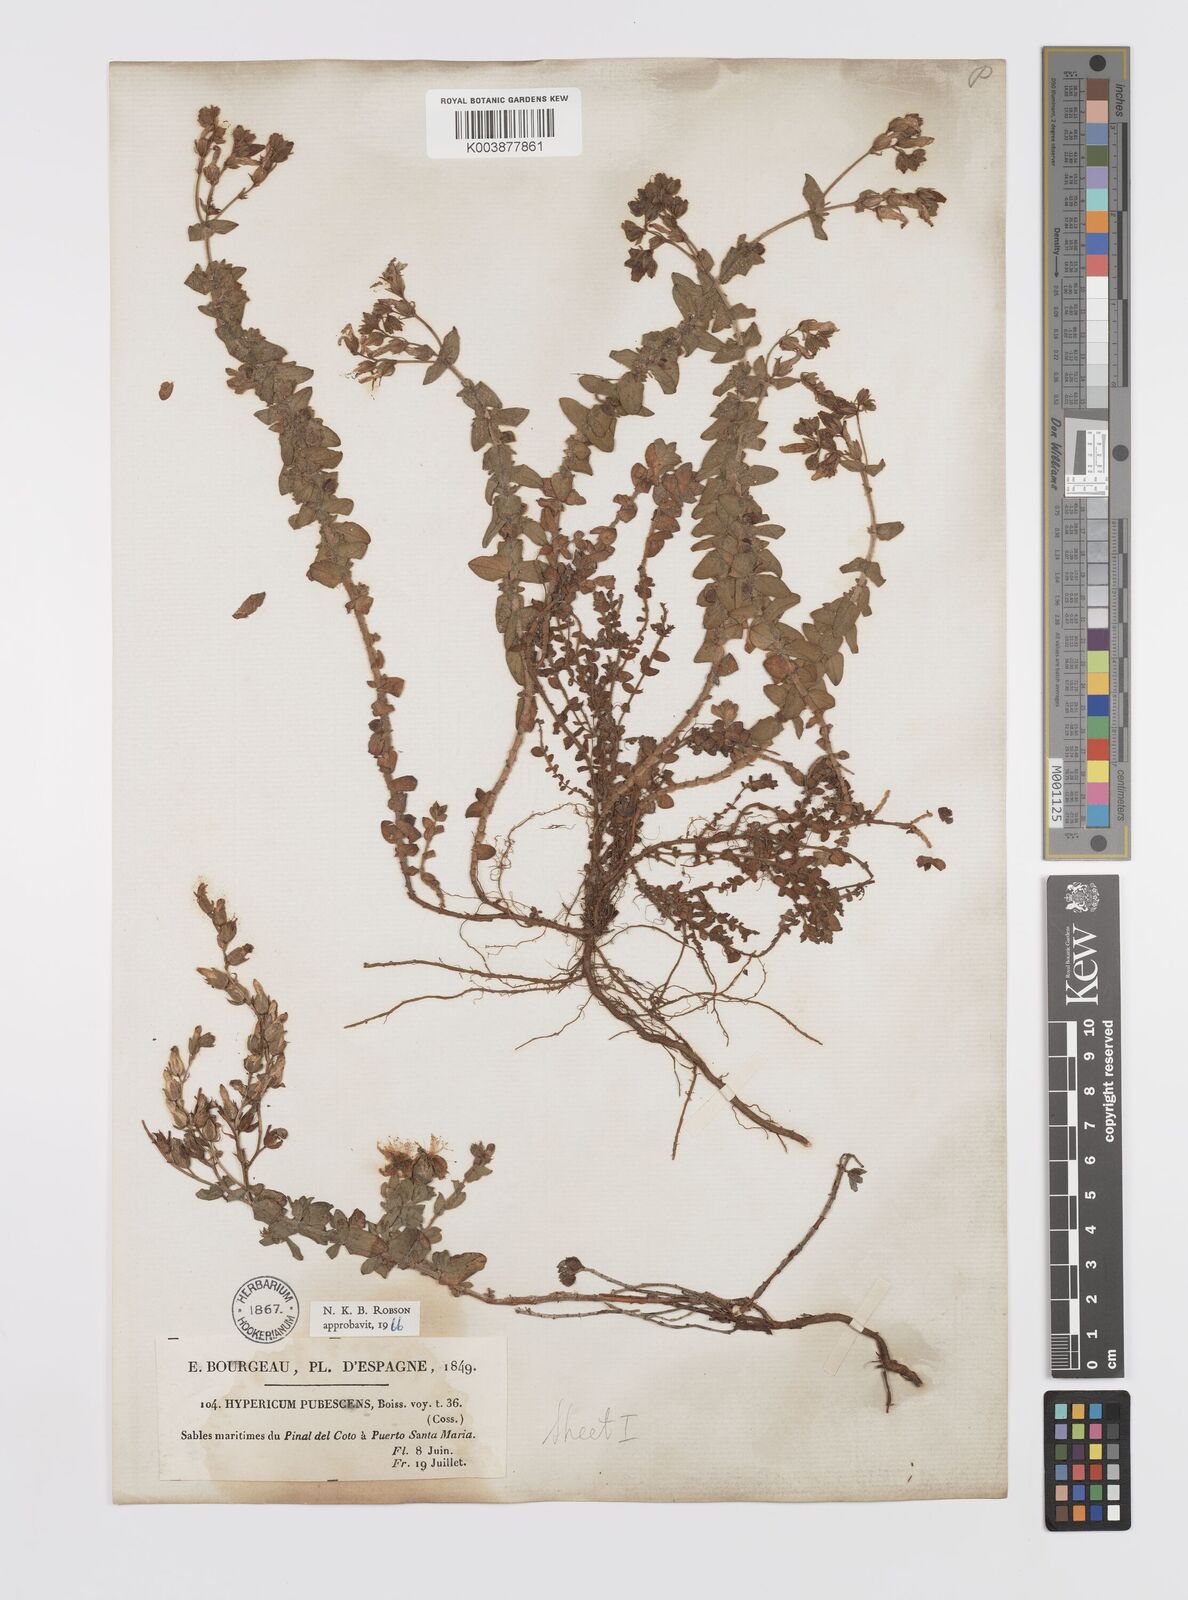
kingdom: Plantae
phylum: Tracheophyta
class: Magnoliopsida
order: Malpighiales
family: Hypericaceae
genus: Hypericum
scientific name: Hypericum pubescens
